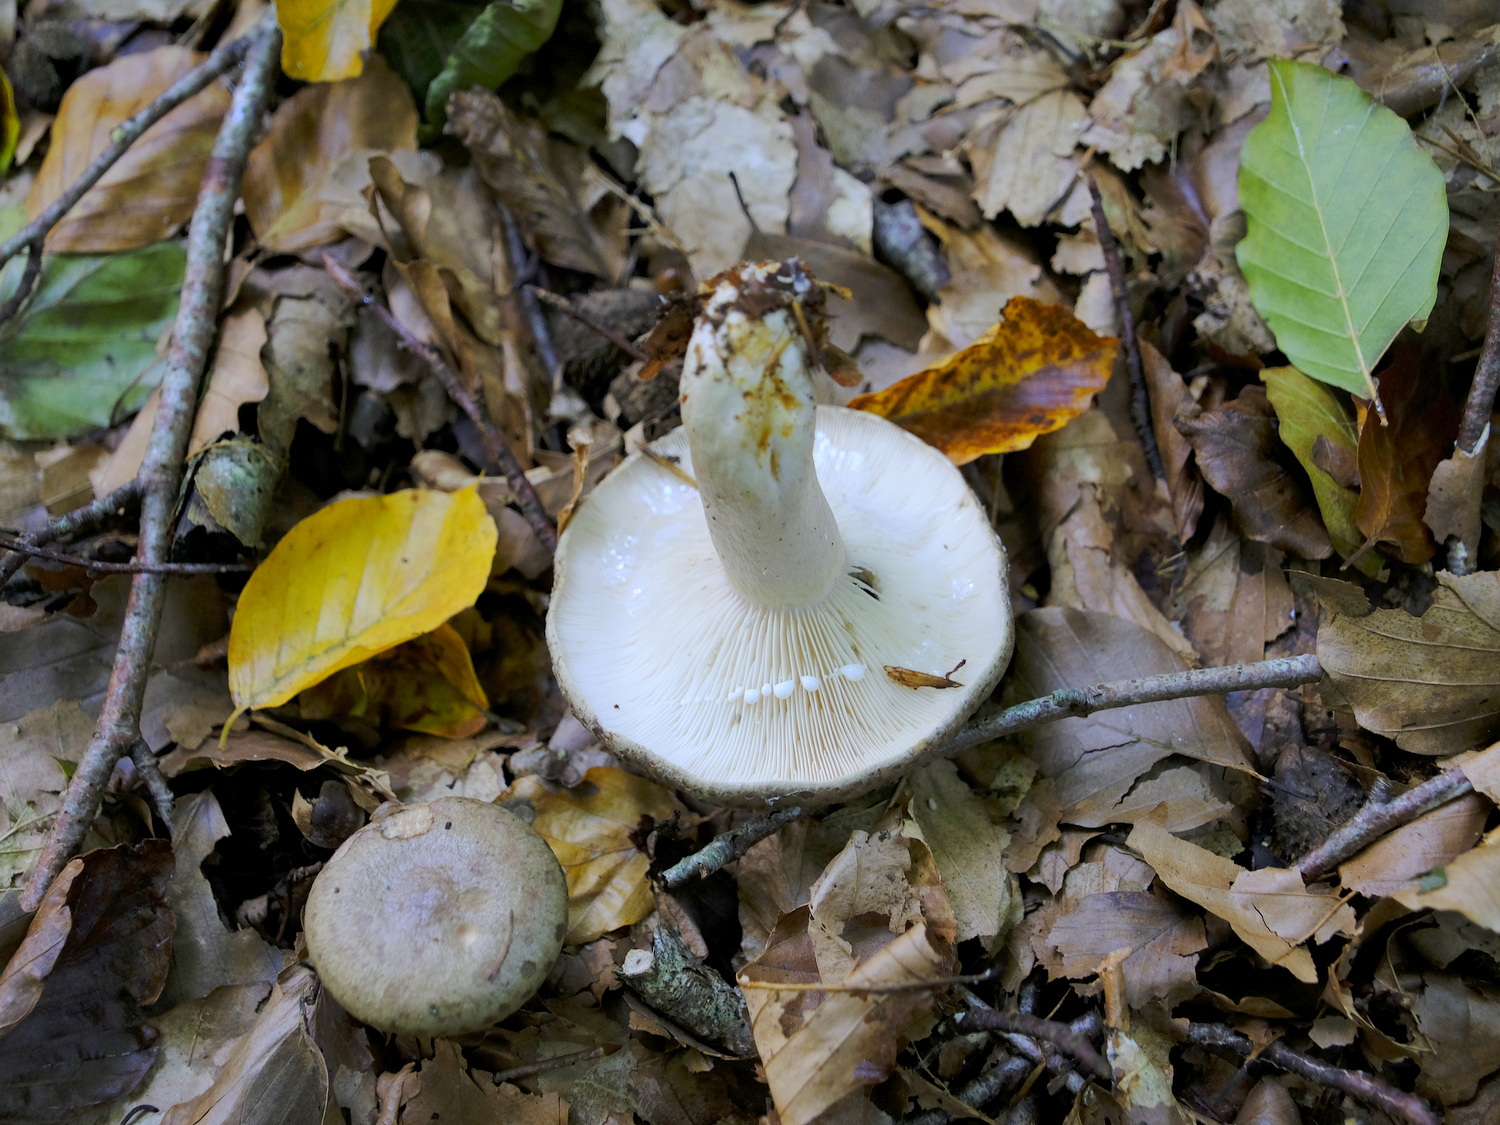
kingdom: Fungi
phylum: Basidiomycota
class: Agaricomycetes
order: Russulales
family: Russulaceae
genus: Lactarius
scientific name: Lactarius blennius
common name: dråbeplettet mælkehat
